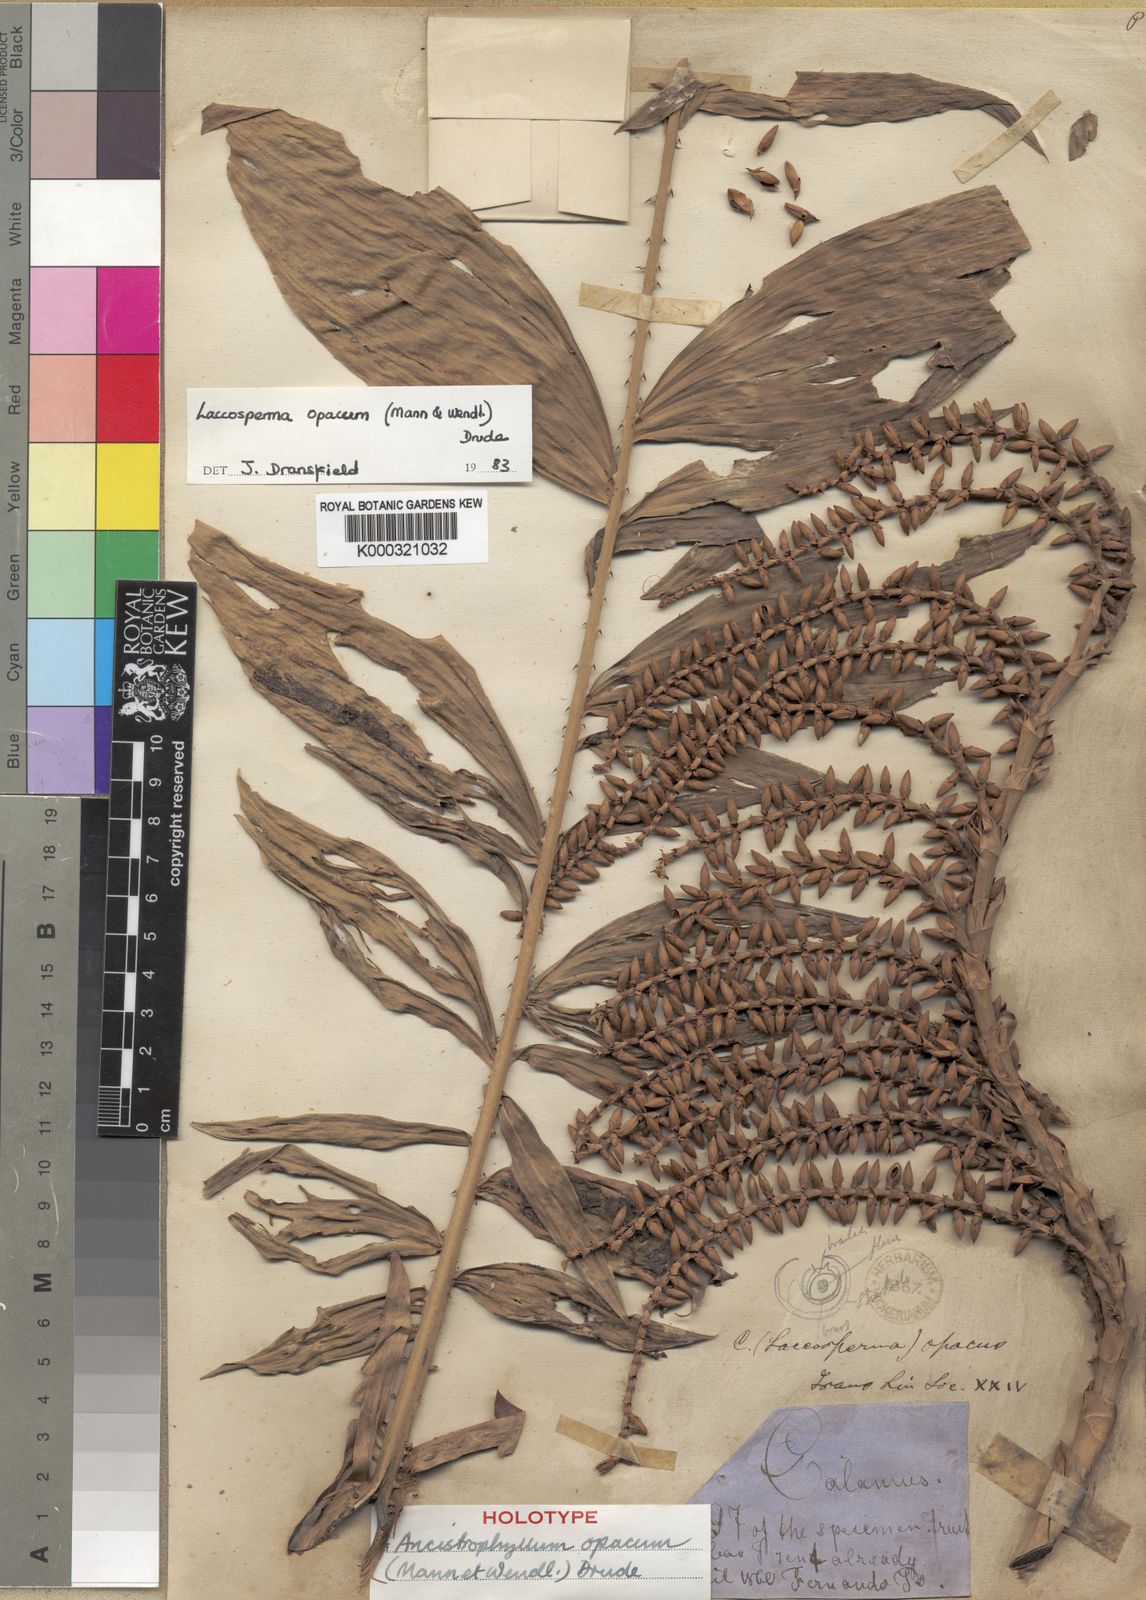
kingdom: Plantae
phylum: Tracheophyta
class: Liliopsida
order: Arecales
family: Arecaceae
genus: Laccosperma
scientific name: Laccosperma opacum
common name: Rattan
